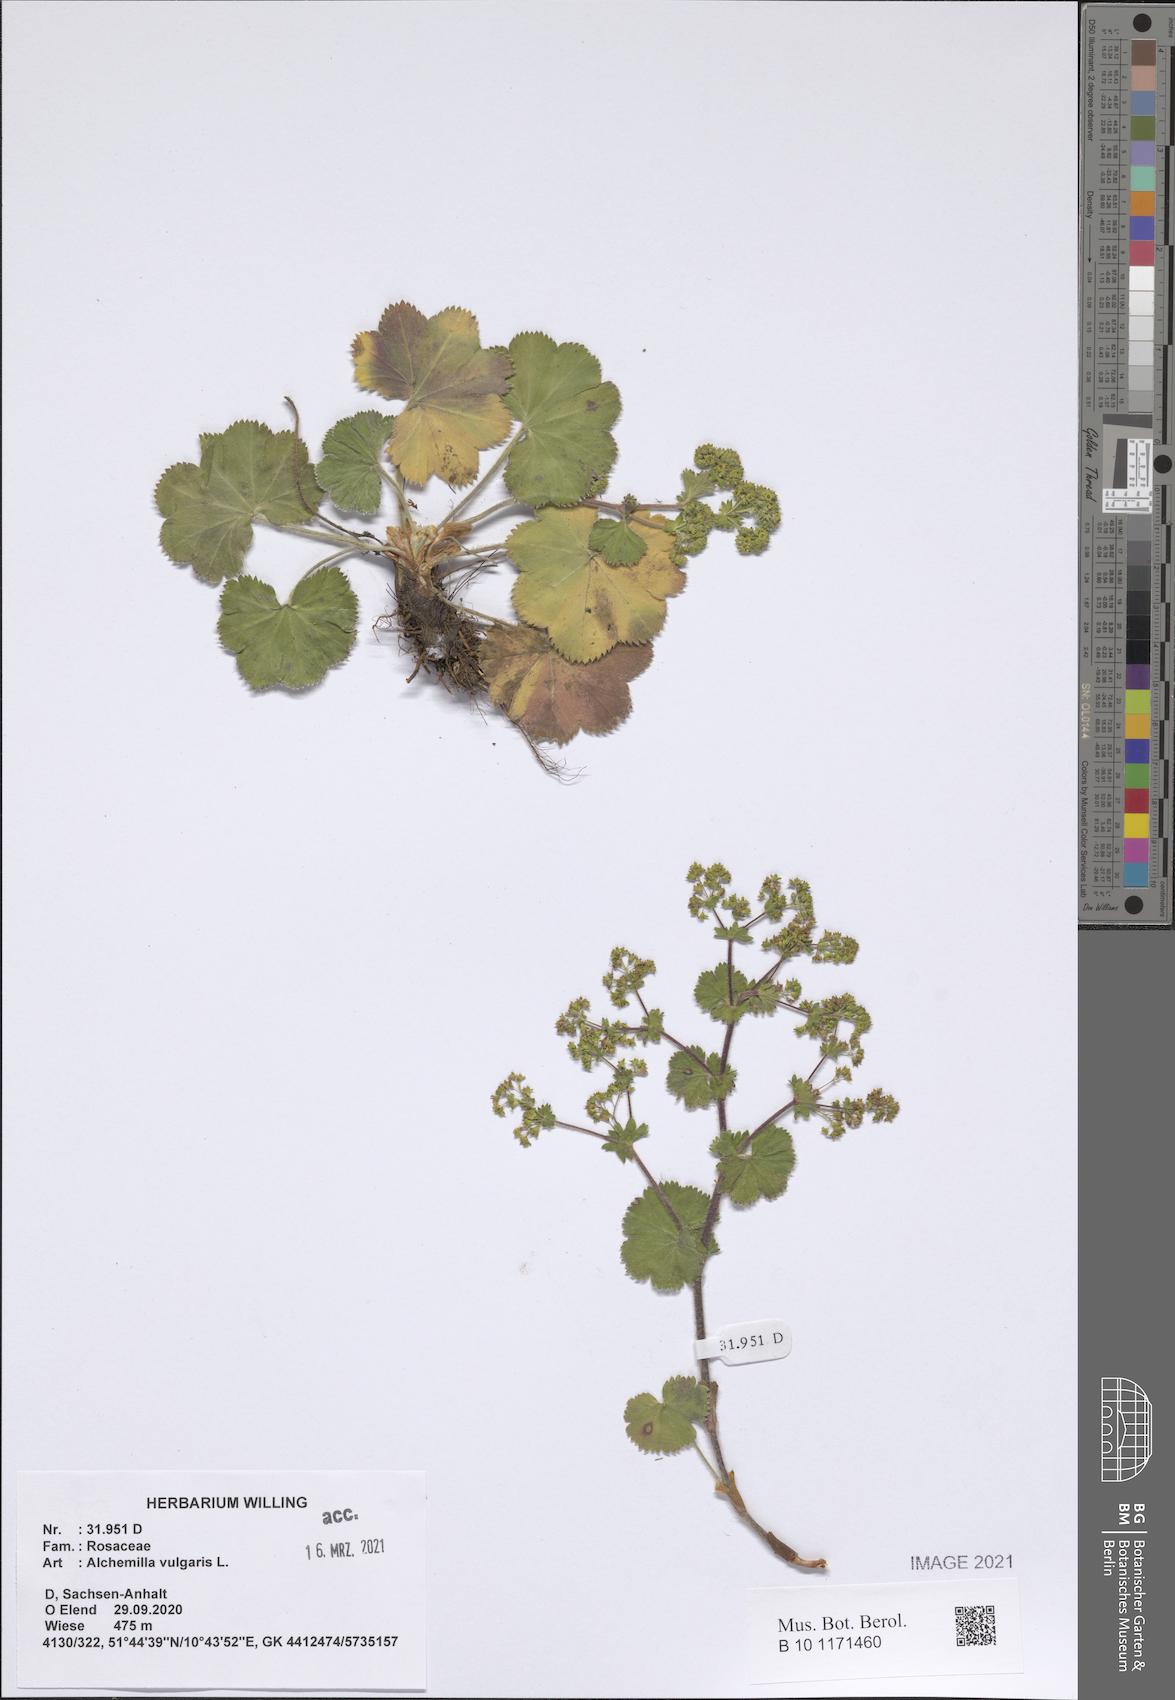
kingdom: Plantae
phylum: Tracheophyta
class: Magnoliopsida
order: Rosales
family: Rosaceae
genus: Alchemilla
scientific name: Alchemilla vulgaris
